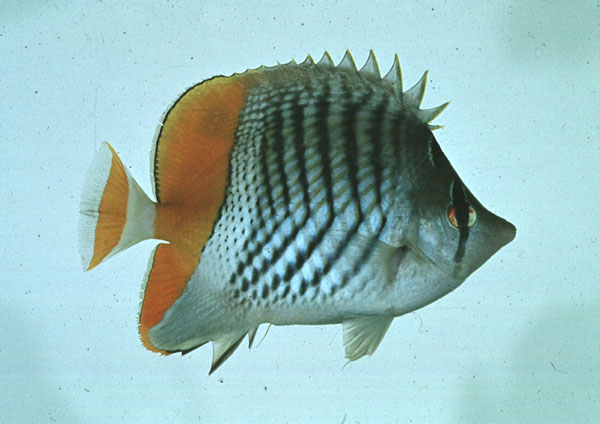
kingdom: Animalia
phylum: Chordata
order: Perciformes
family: Chaetodontidae
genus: Chaetodon
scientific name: Chaetodon madagaskariensis
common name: Madagascar butterflyfish
